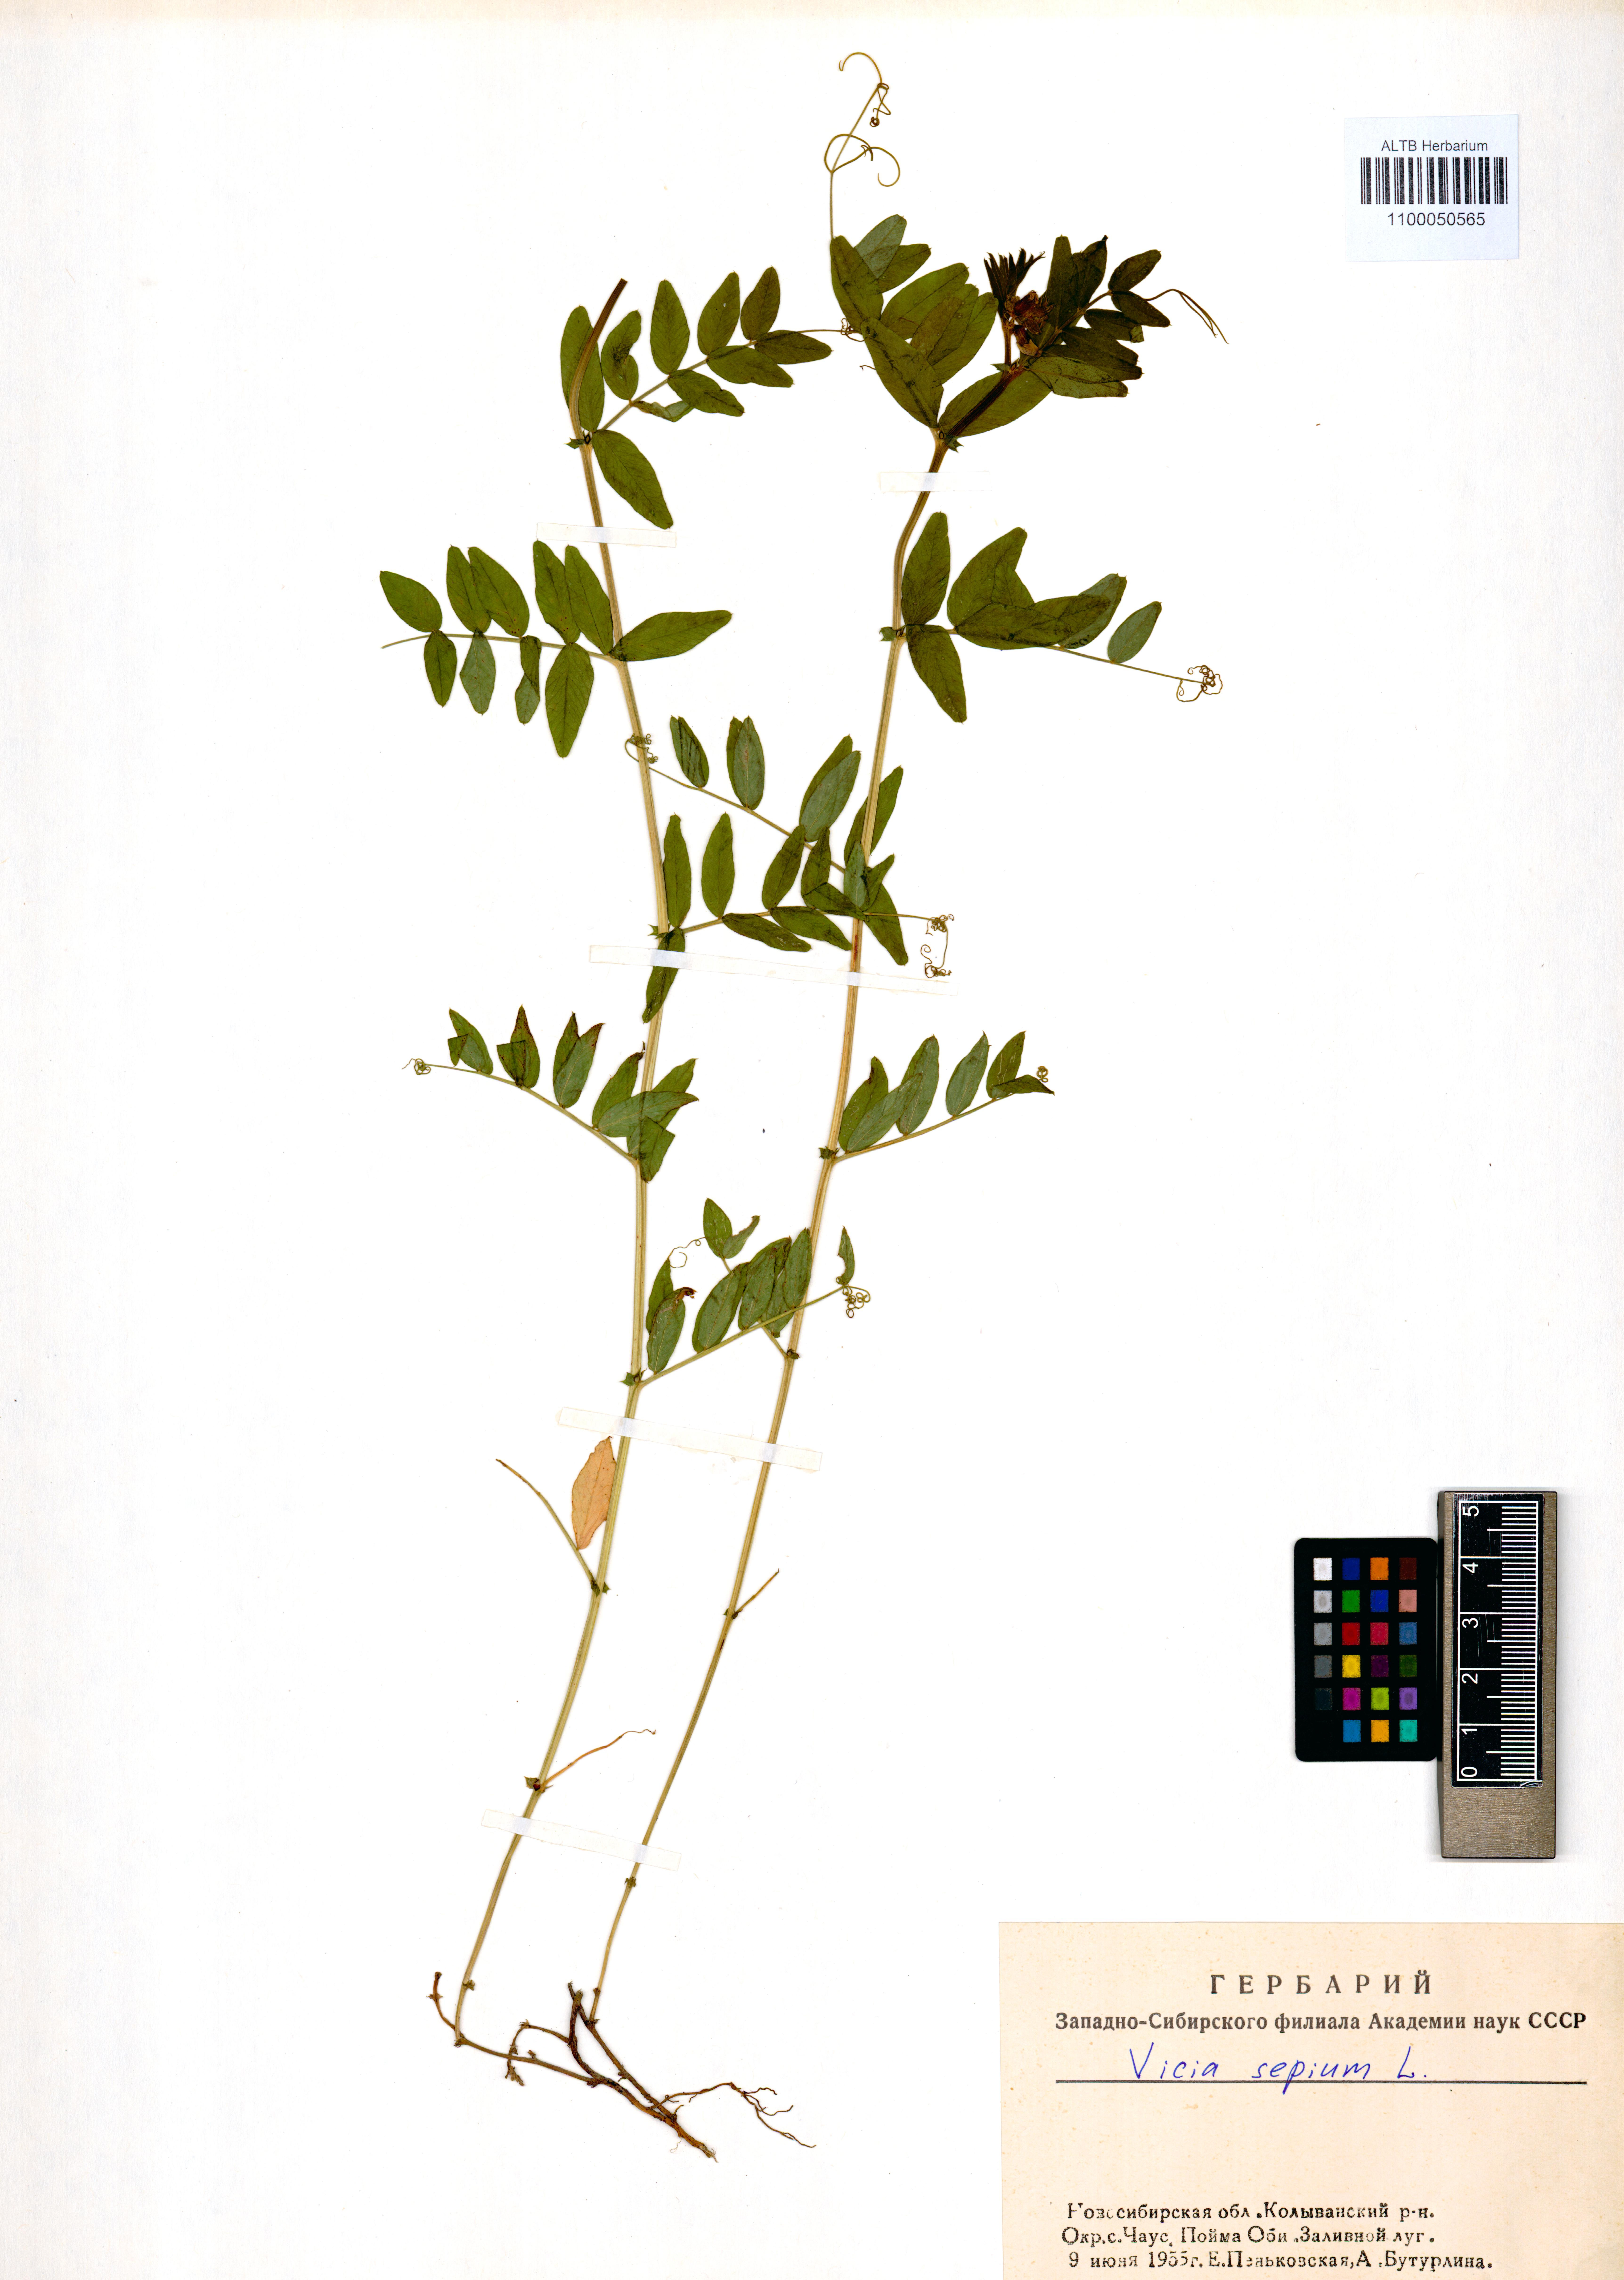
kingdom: Plantae
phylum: Tracheophyta
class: Magnoliopsida
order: Fabales
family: Fabaceae
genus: Vicia
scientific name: Vicia sepium
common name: Bush vetch
